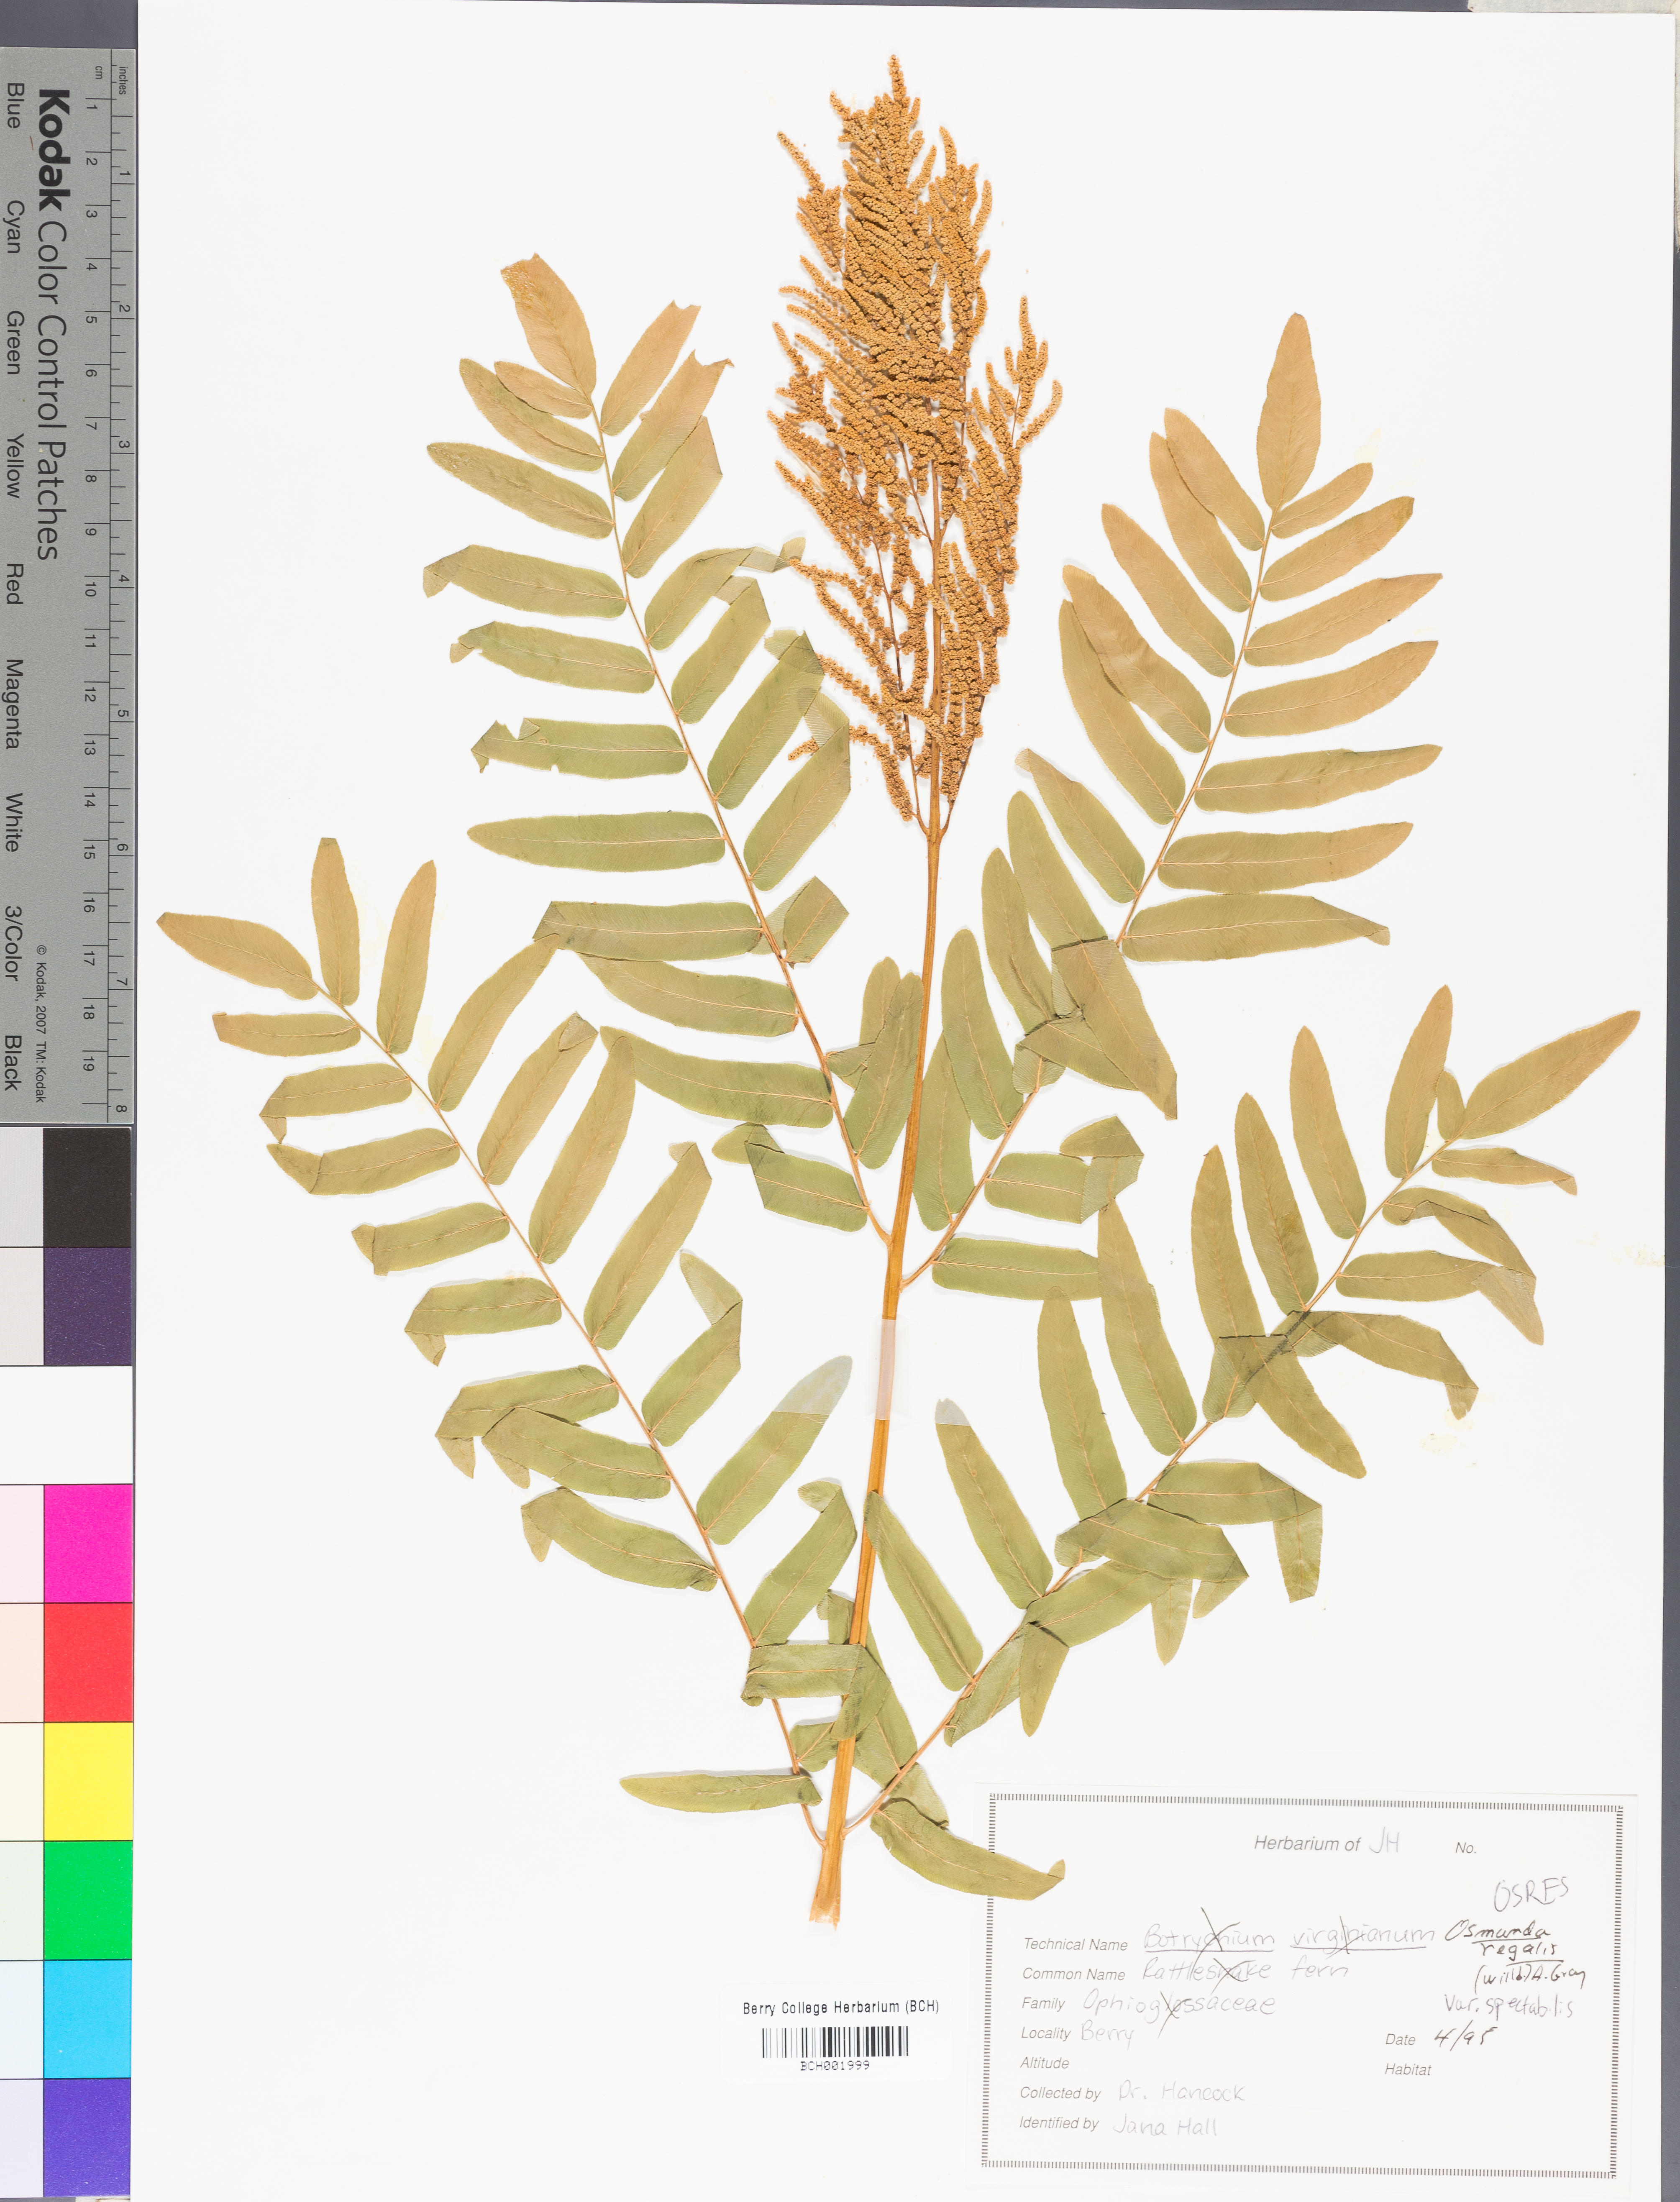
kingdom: Plantae
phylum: Tracheophyta
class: Polypodiopsida
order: Osmundales
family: Osmundaceae
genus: Osmunda
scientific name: Osmunda spectabilis
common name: American royal fern
